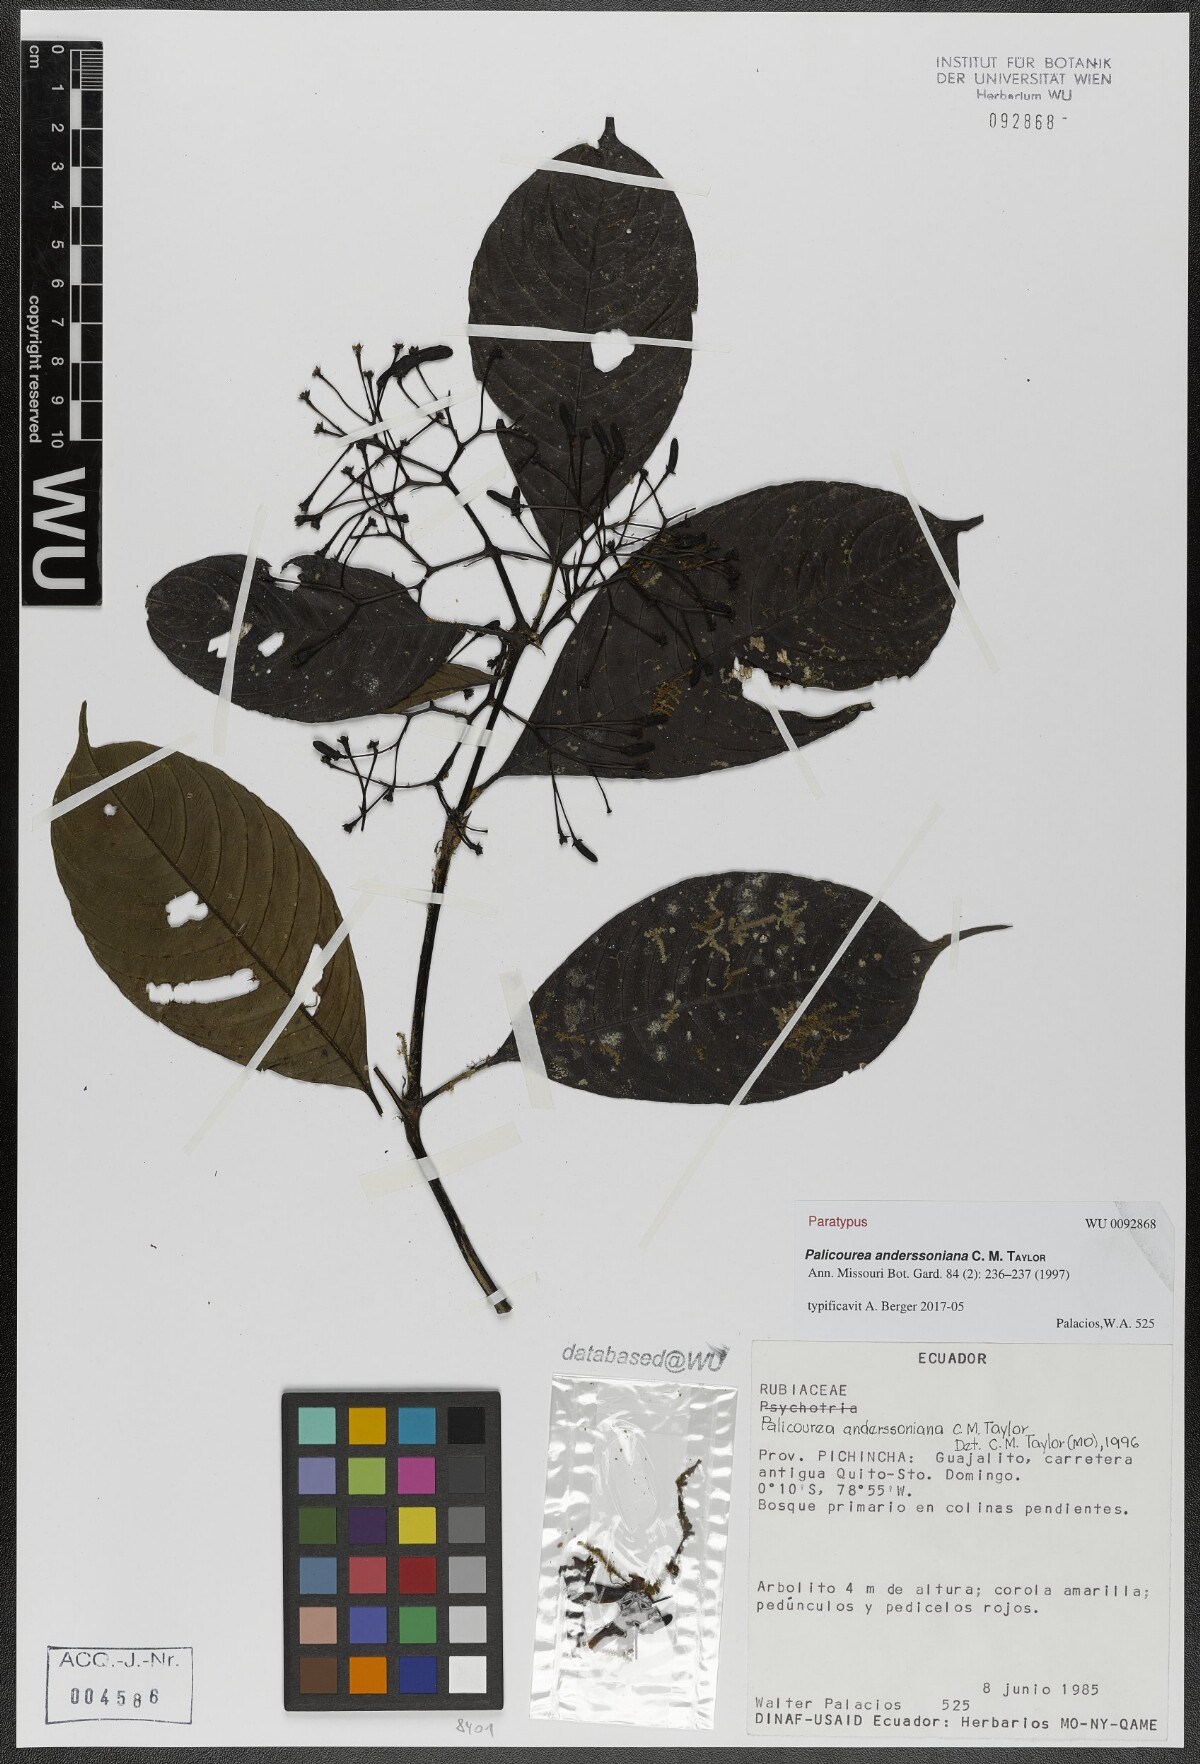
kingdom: Plantae
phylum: Tracheophyta
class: Magnoliopsida
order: Gentianales
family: Rubiaceae
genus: Palicourea
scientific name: Palicourea anderssoniana
